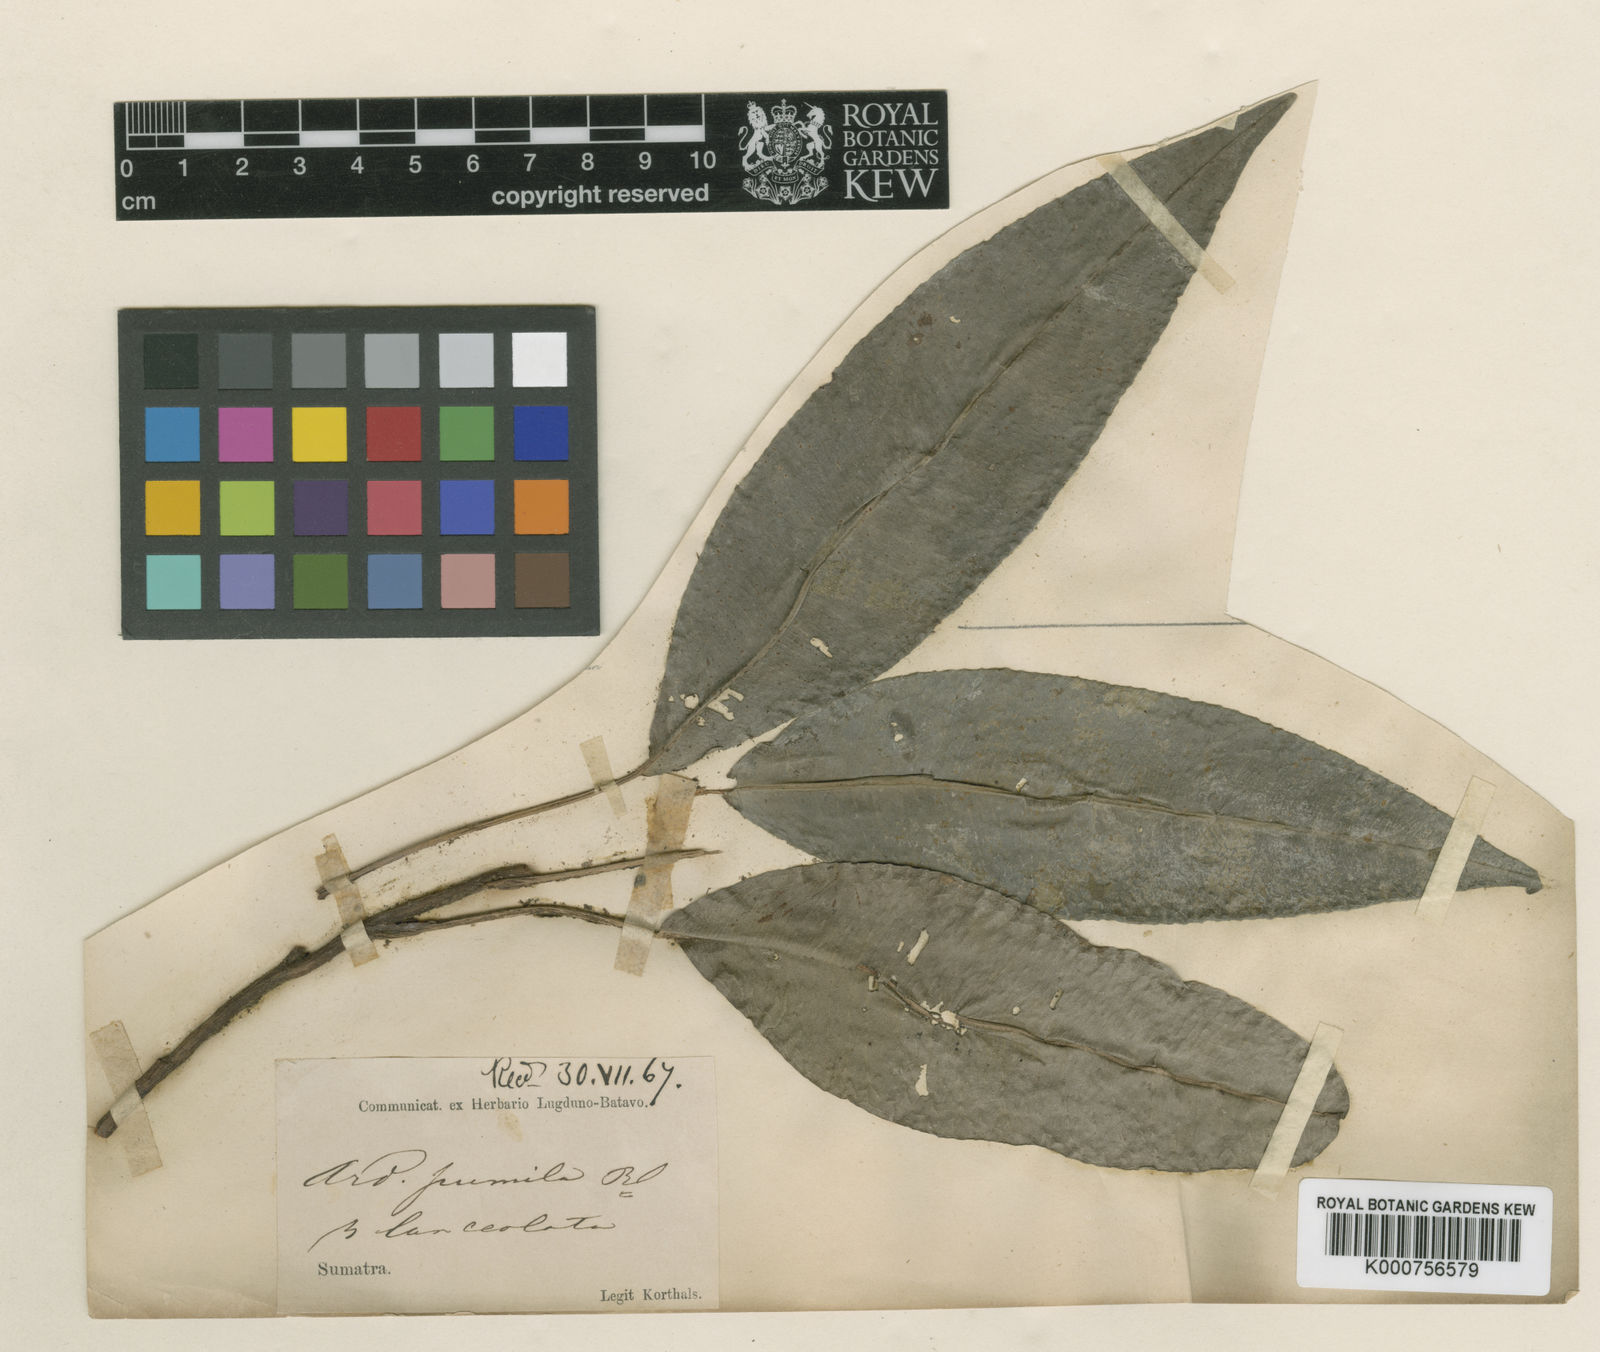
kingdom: Plantae
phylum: Tracheophyta
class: Magnoliopsida
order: Ericales
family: Primulaceae
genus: Labisia
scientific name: Labisia pumila
